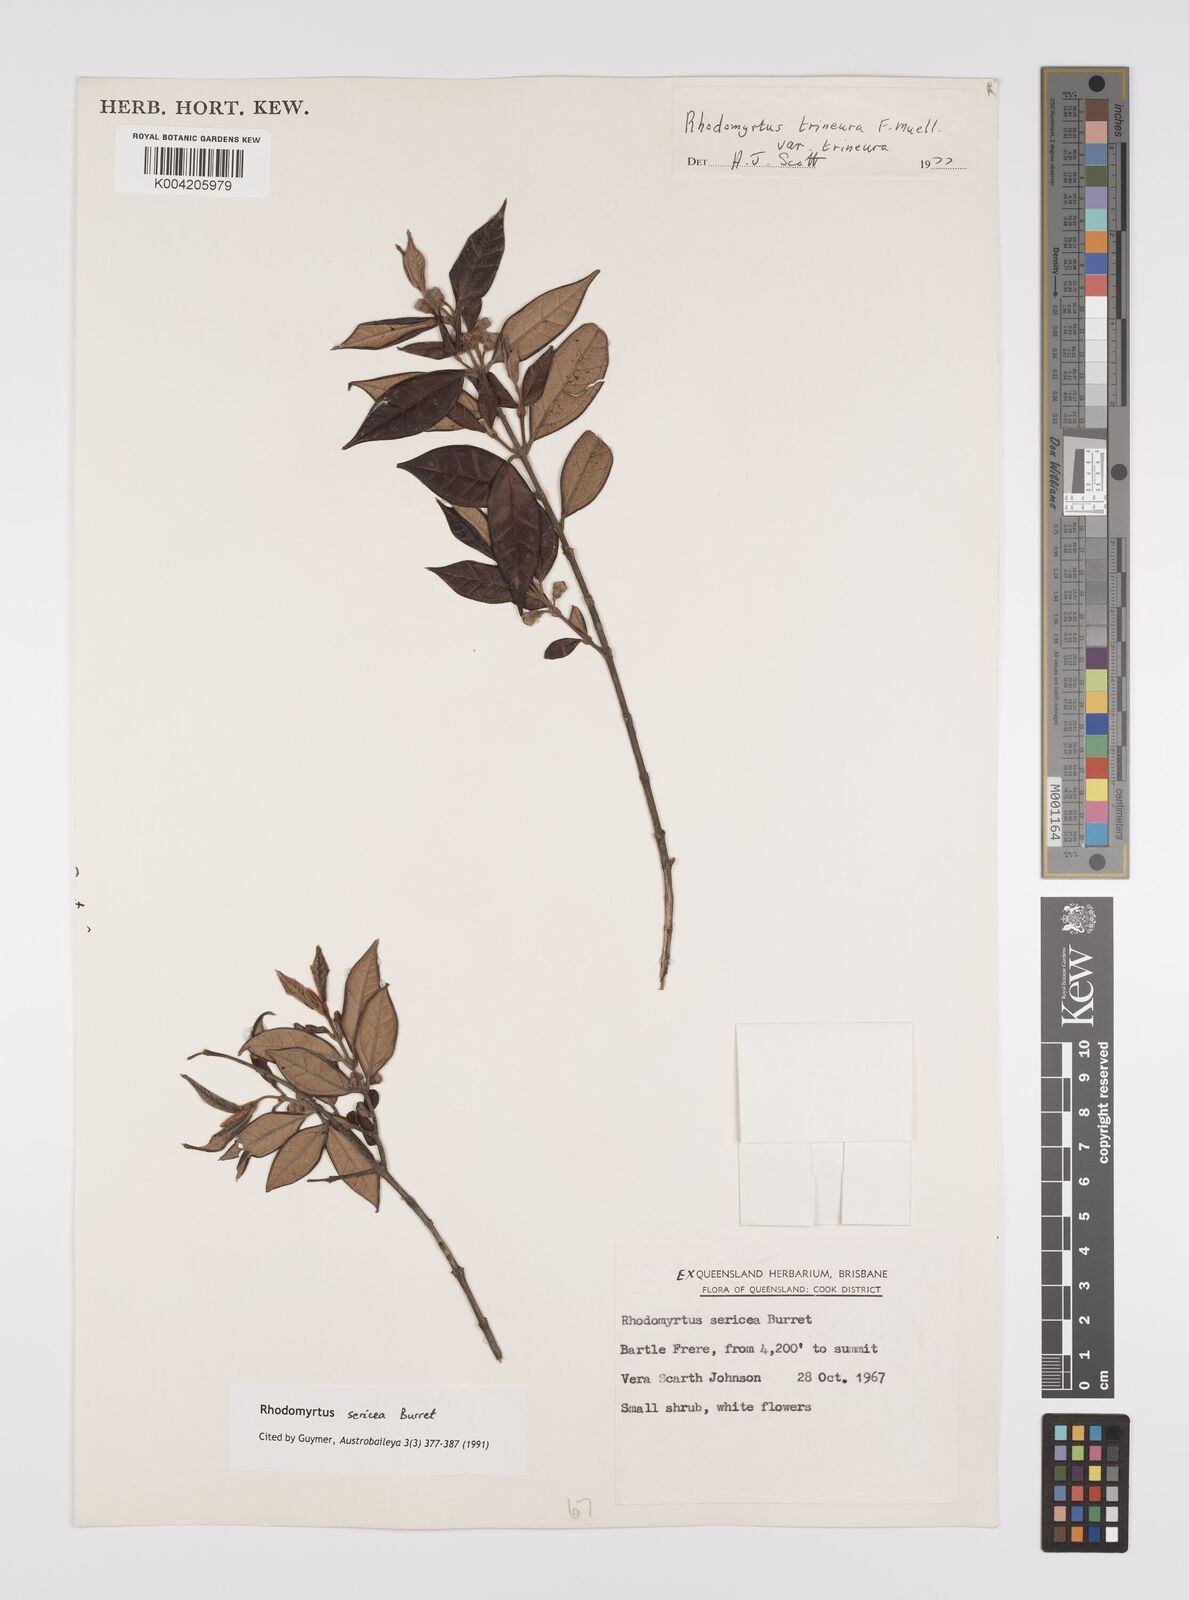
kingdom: Plantae
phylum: Tracheophyta
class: Magnoliopsida
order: Myrtales
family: Myrtaceae
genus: Rhodomyrtus
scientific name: Rhodomyrtus sericea
